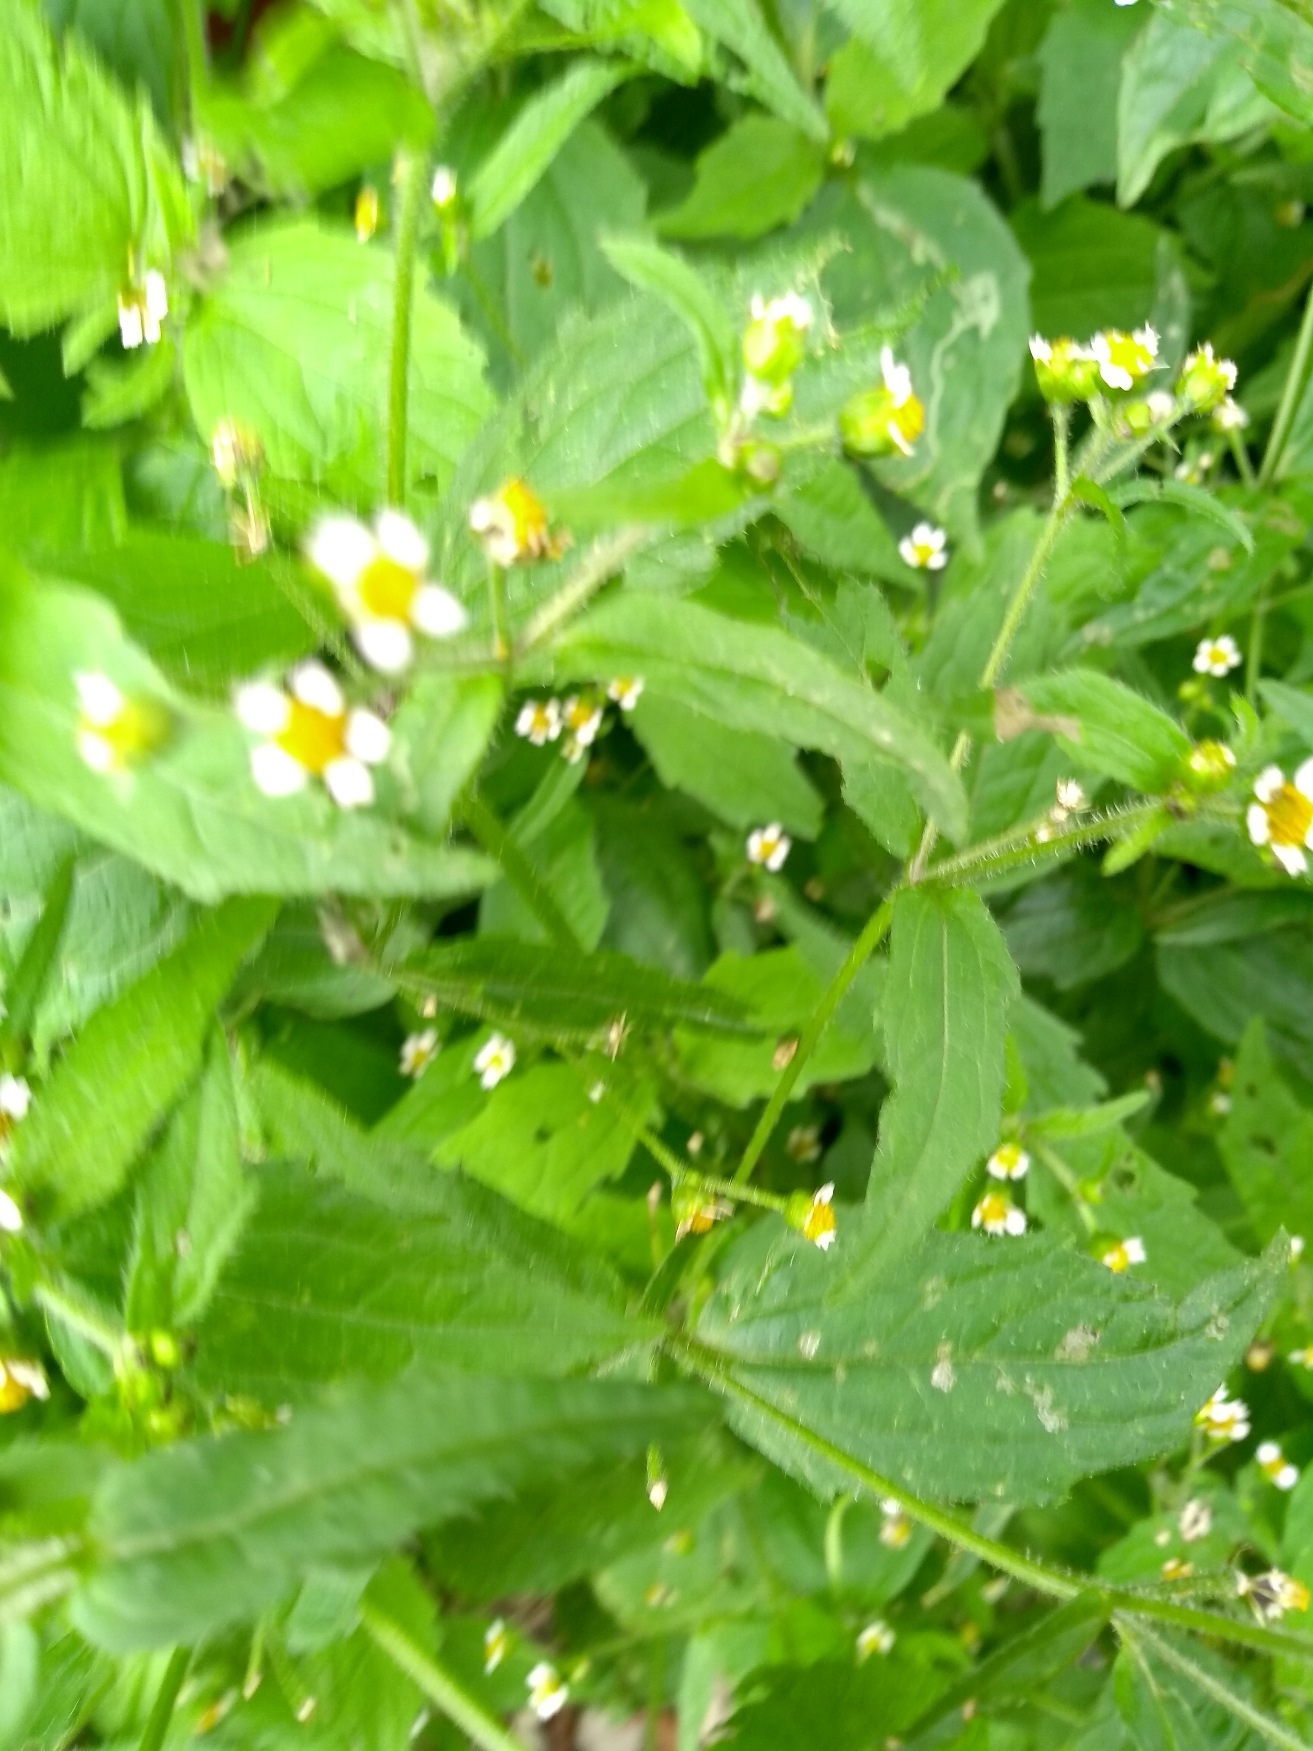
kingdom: Plantae
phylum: Tracheophyta
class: Magnoliopsida
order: Asterales
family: Asteraceae
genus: Galinsoga
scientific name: Galinsoga quadriradiata
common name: Kirtel-kortstråle
